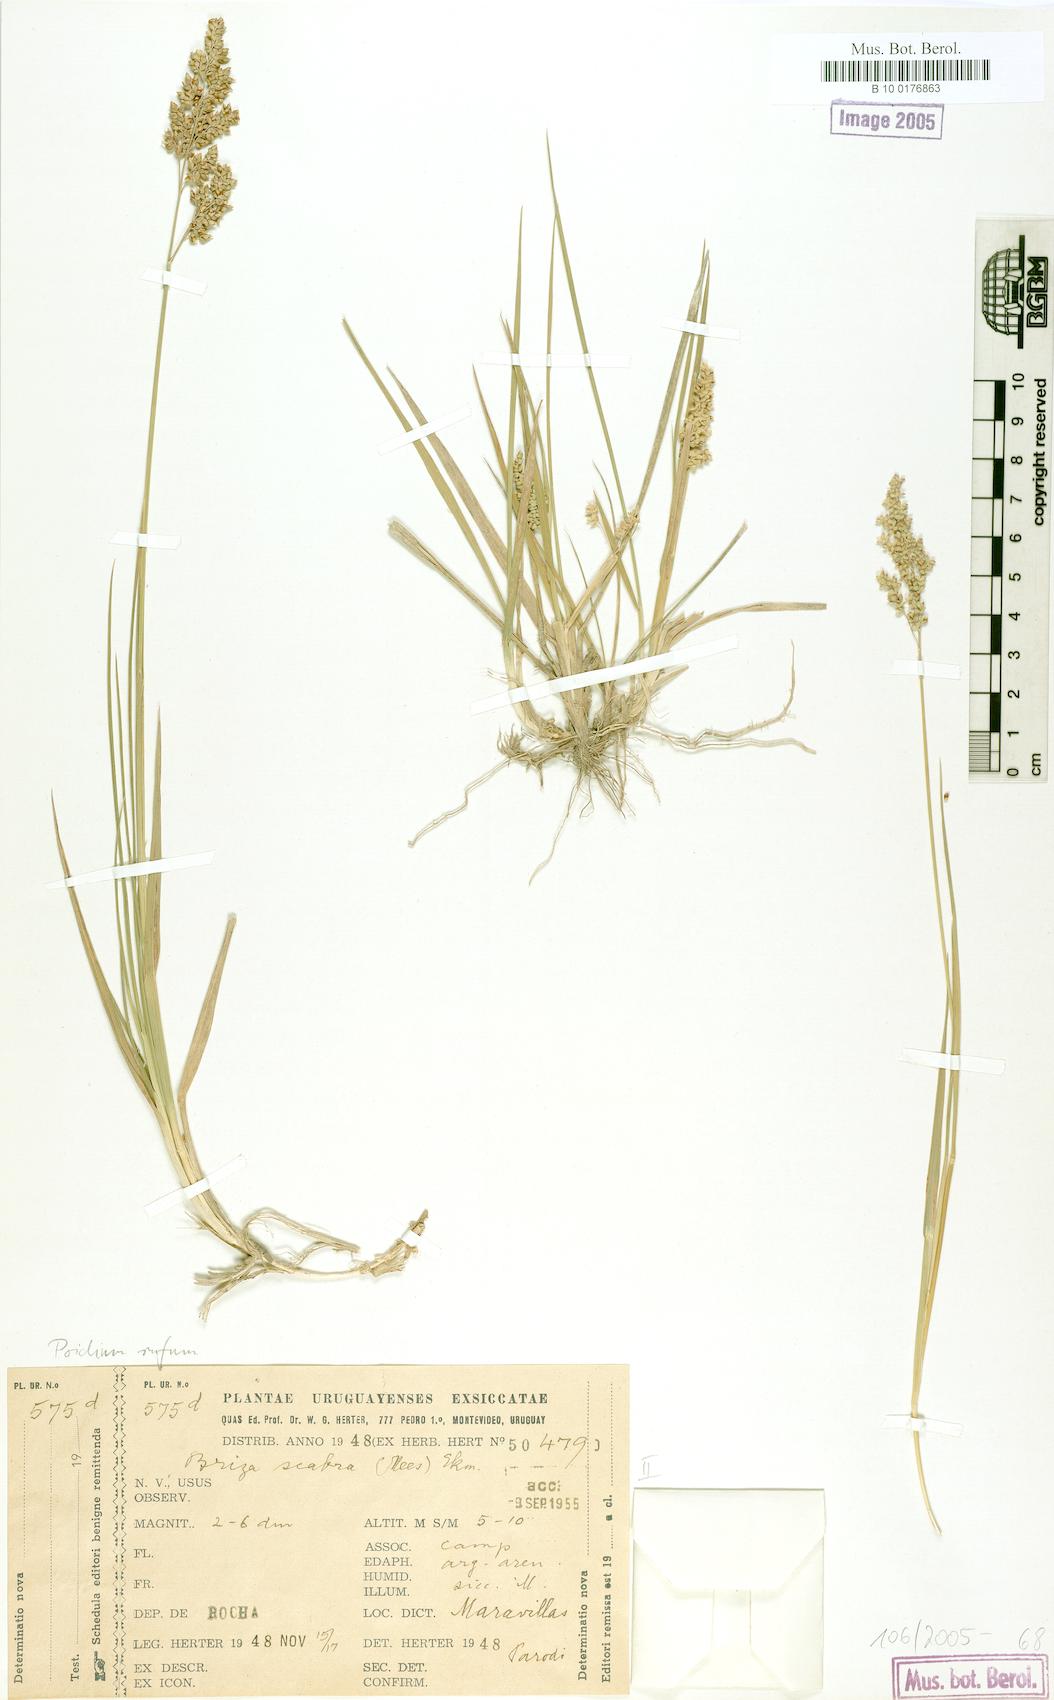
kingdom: Plantae
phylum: Tracheophyta
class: Liliopsida
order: Poales
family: Poaceae
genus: Lombardochloa
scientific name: Lombardochloa rufa
